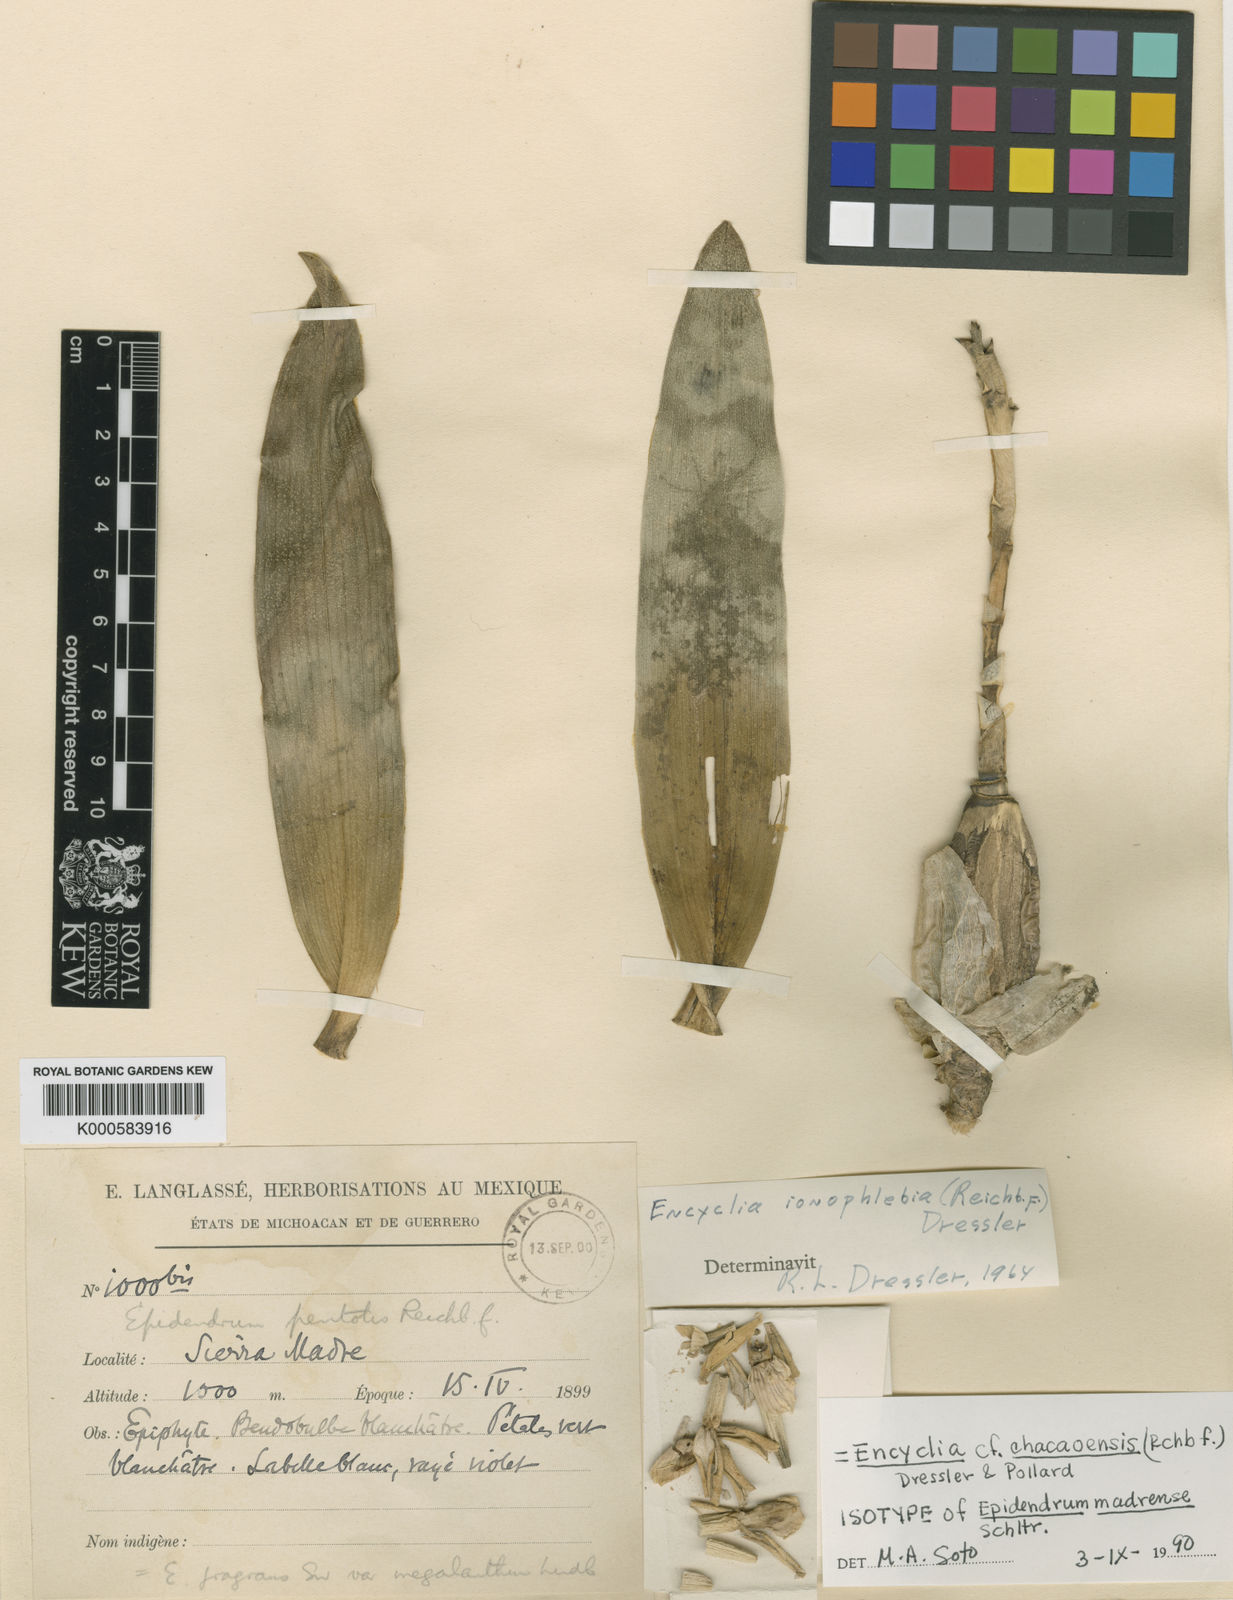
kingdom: Plantae
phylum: Tracheophyta
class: Liliopsida
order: Asparagales
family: Orchidaceae
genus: Prosthechea
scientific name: Prosthechea ionophlebia
